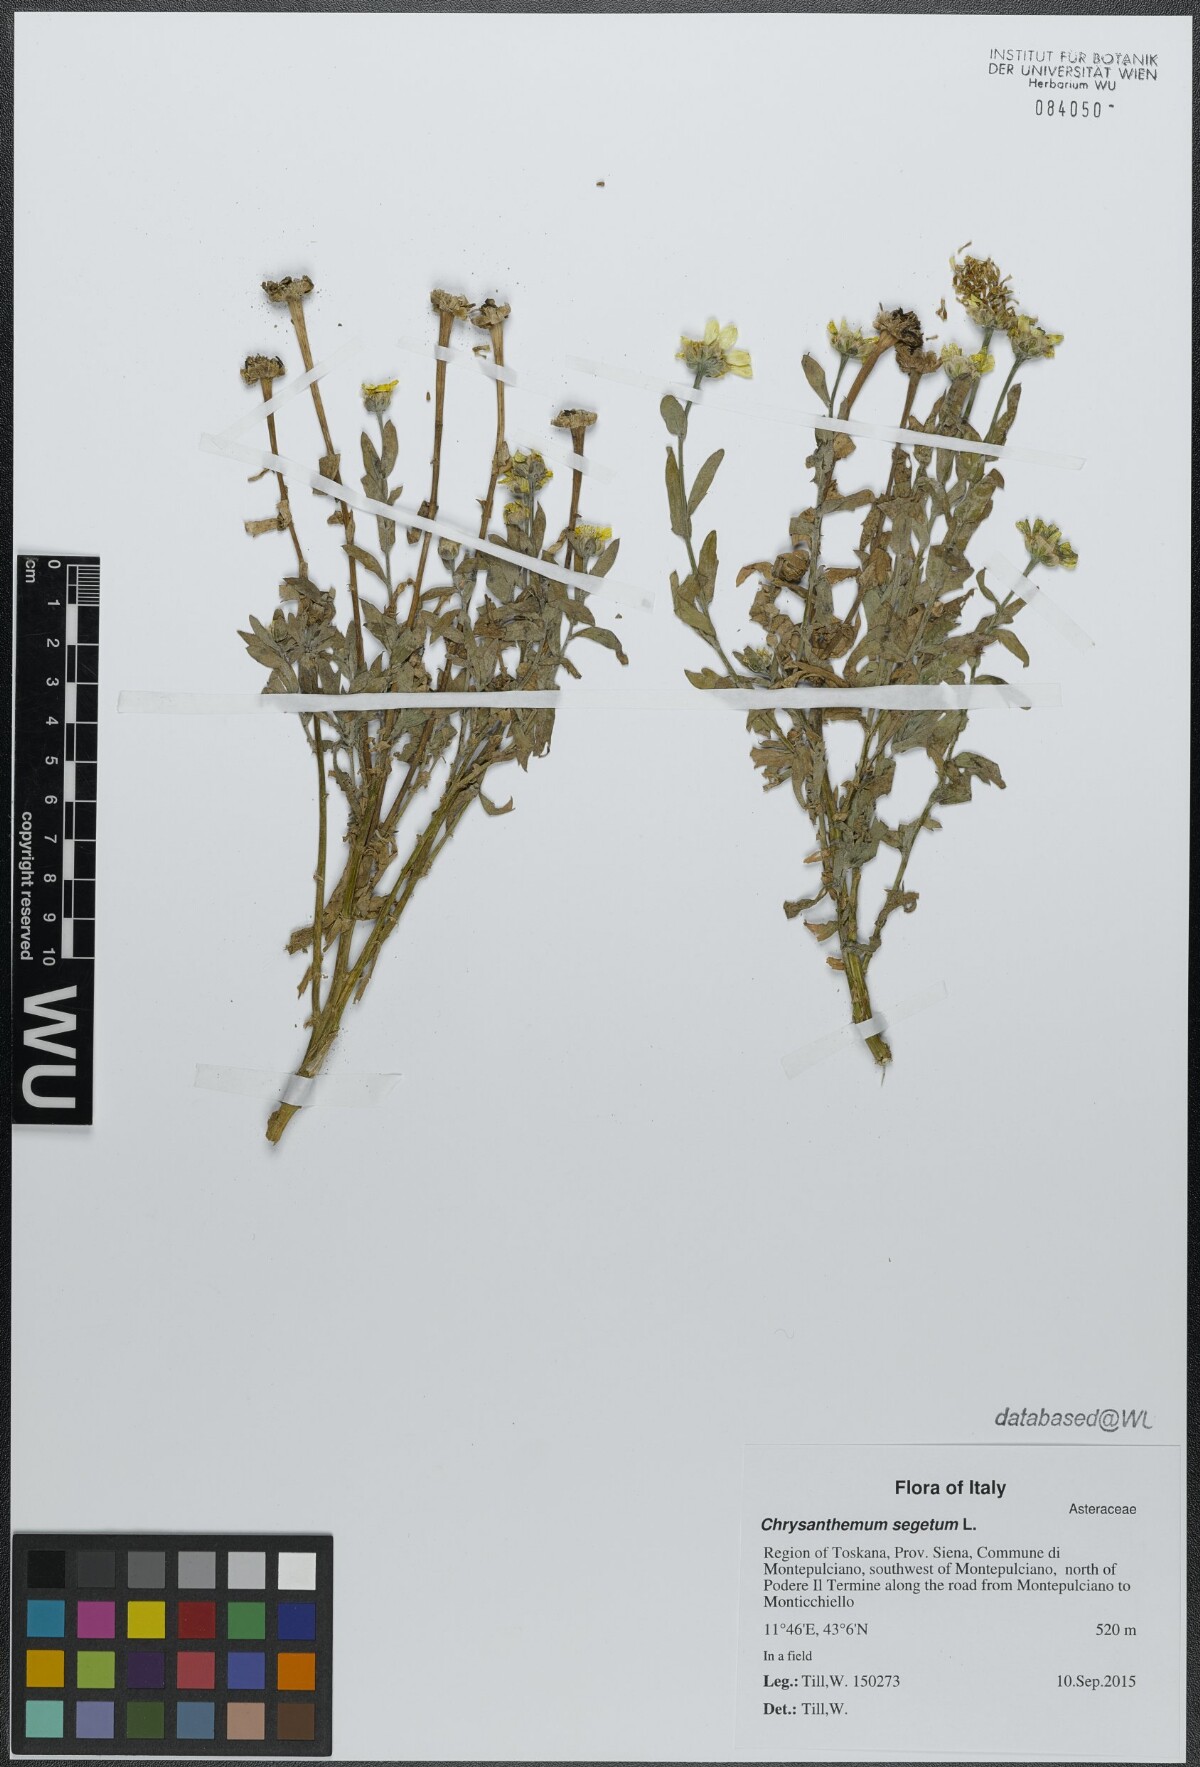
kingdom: Plantae
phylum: Tracheophyta
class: Magnoliopsida
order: Asterales
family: Asteraceae
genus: Glebionis
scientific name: Glebionis segetum
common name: Corndaisy
